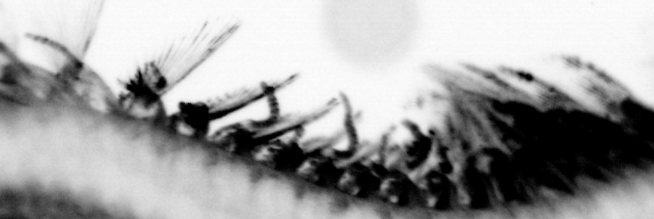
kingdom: Animalia
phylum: Annelida
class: Polychaeta
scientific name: Polychaeta
